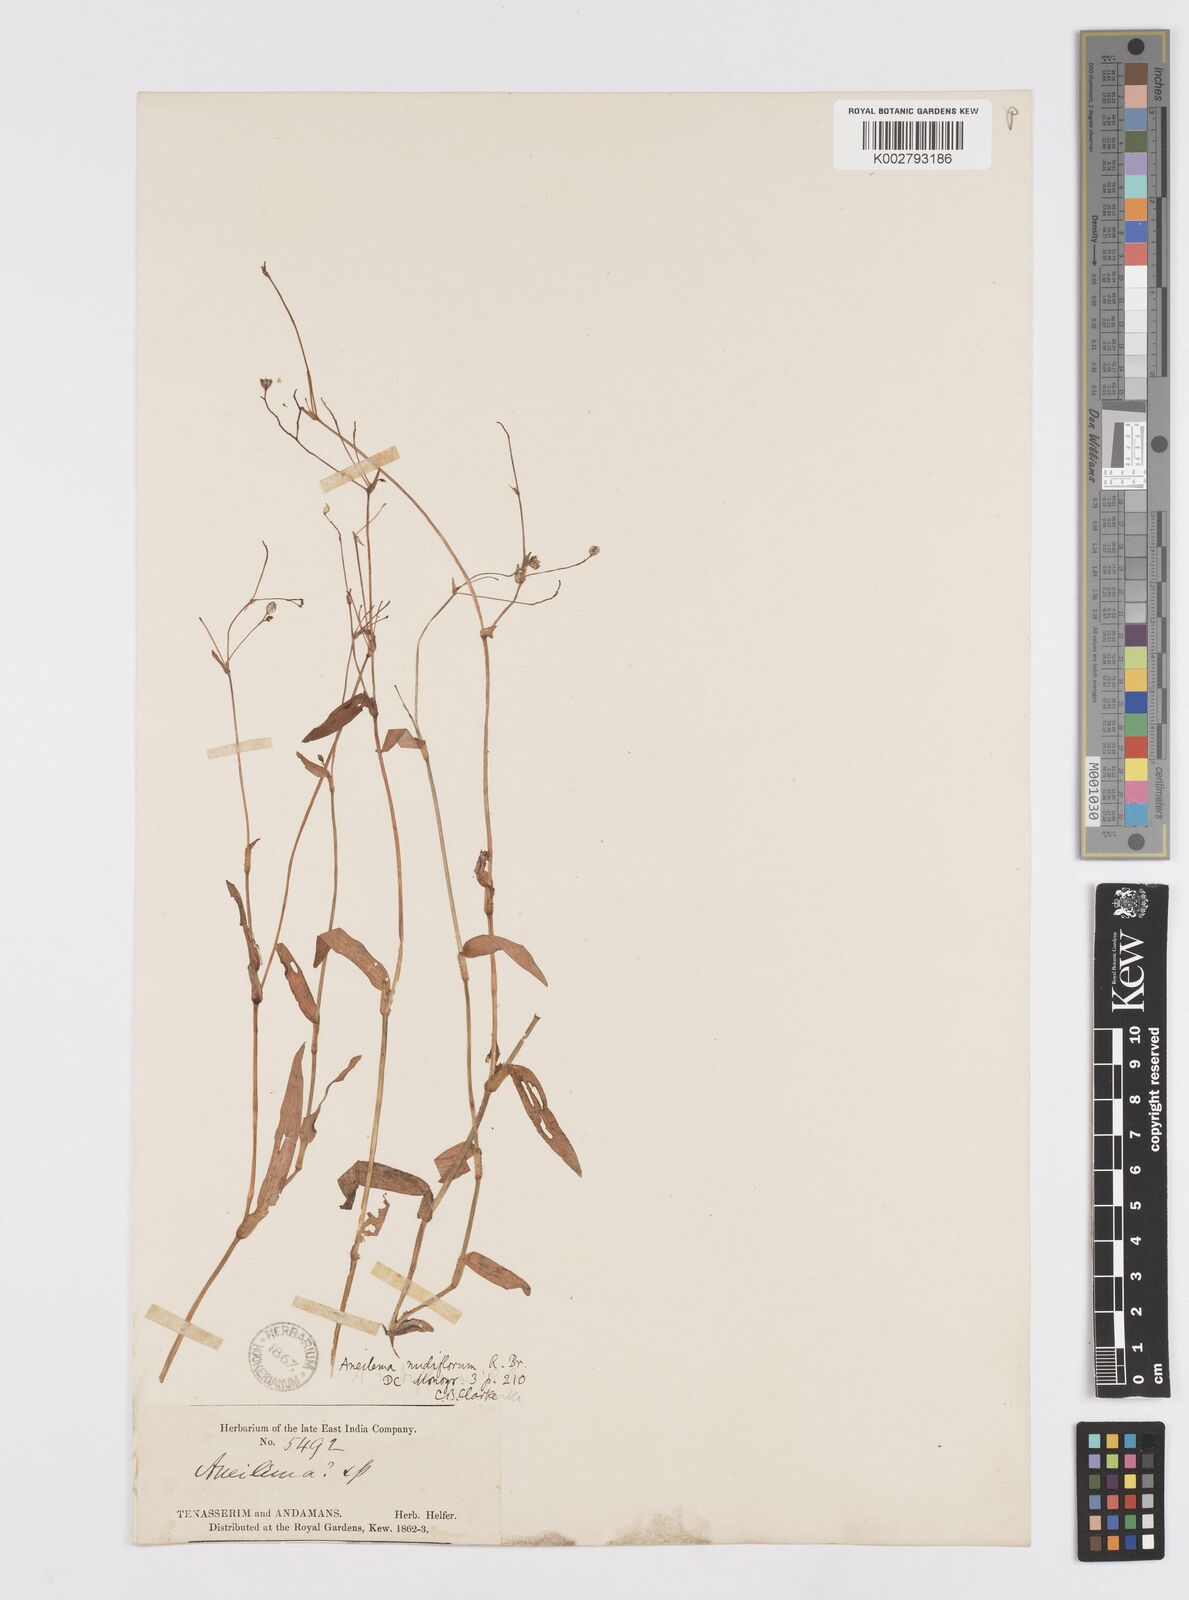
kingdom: Plantae
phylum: Tracheophyta
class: Liliopsida
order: Commelinales
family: Commelinaceae
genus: Murdannia
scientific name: Murdannia nudiflora
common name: Nakedstem dewflower
